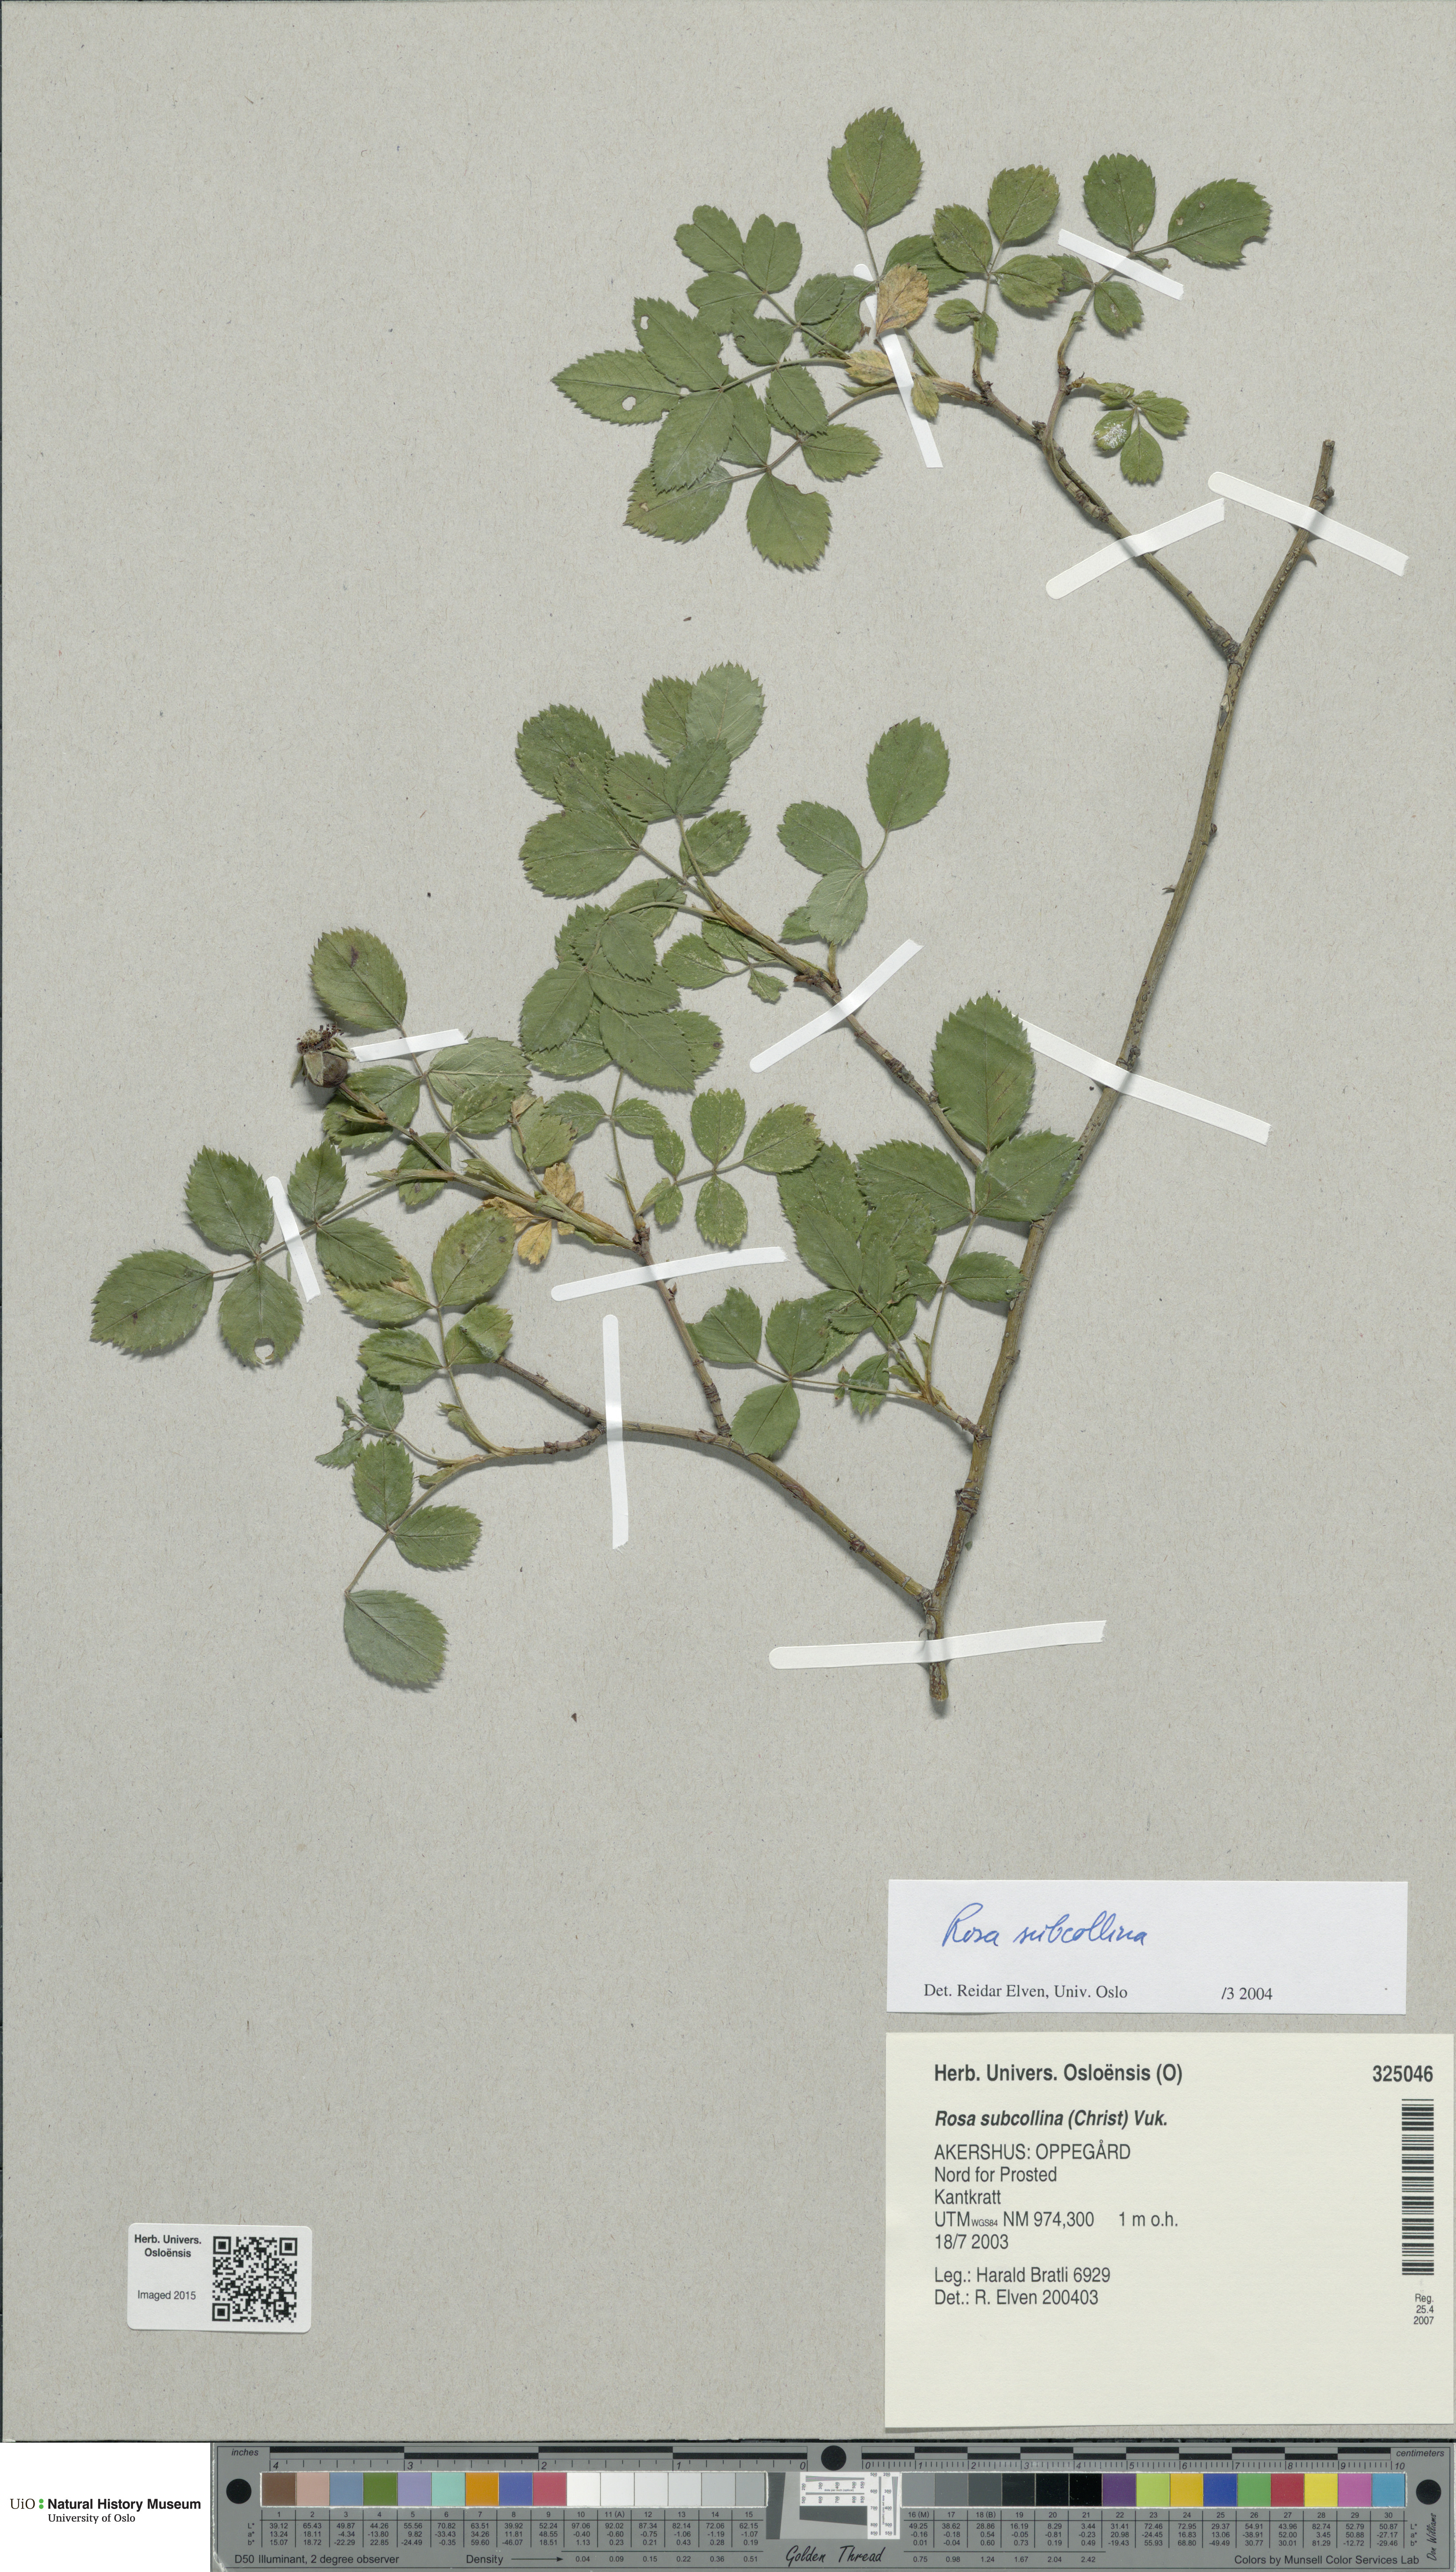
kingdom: Plantae
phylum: Tracheophyta
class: Magnoliopsida
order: Rosales
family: Rosaceae
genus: Rosa
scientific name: Rosa subcollina
